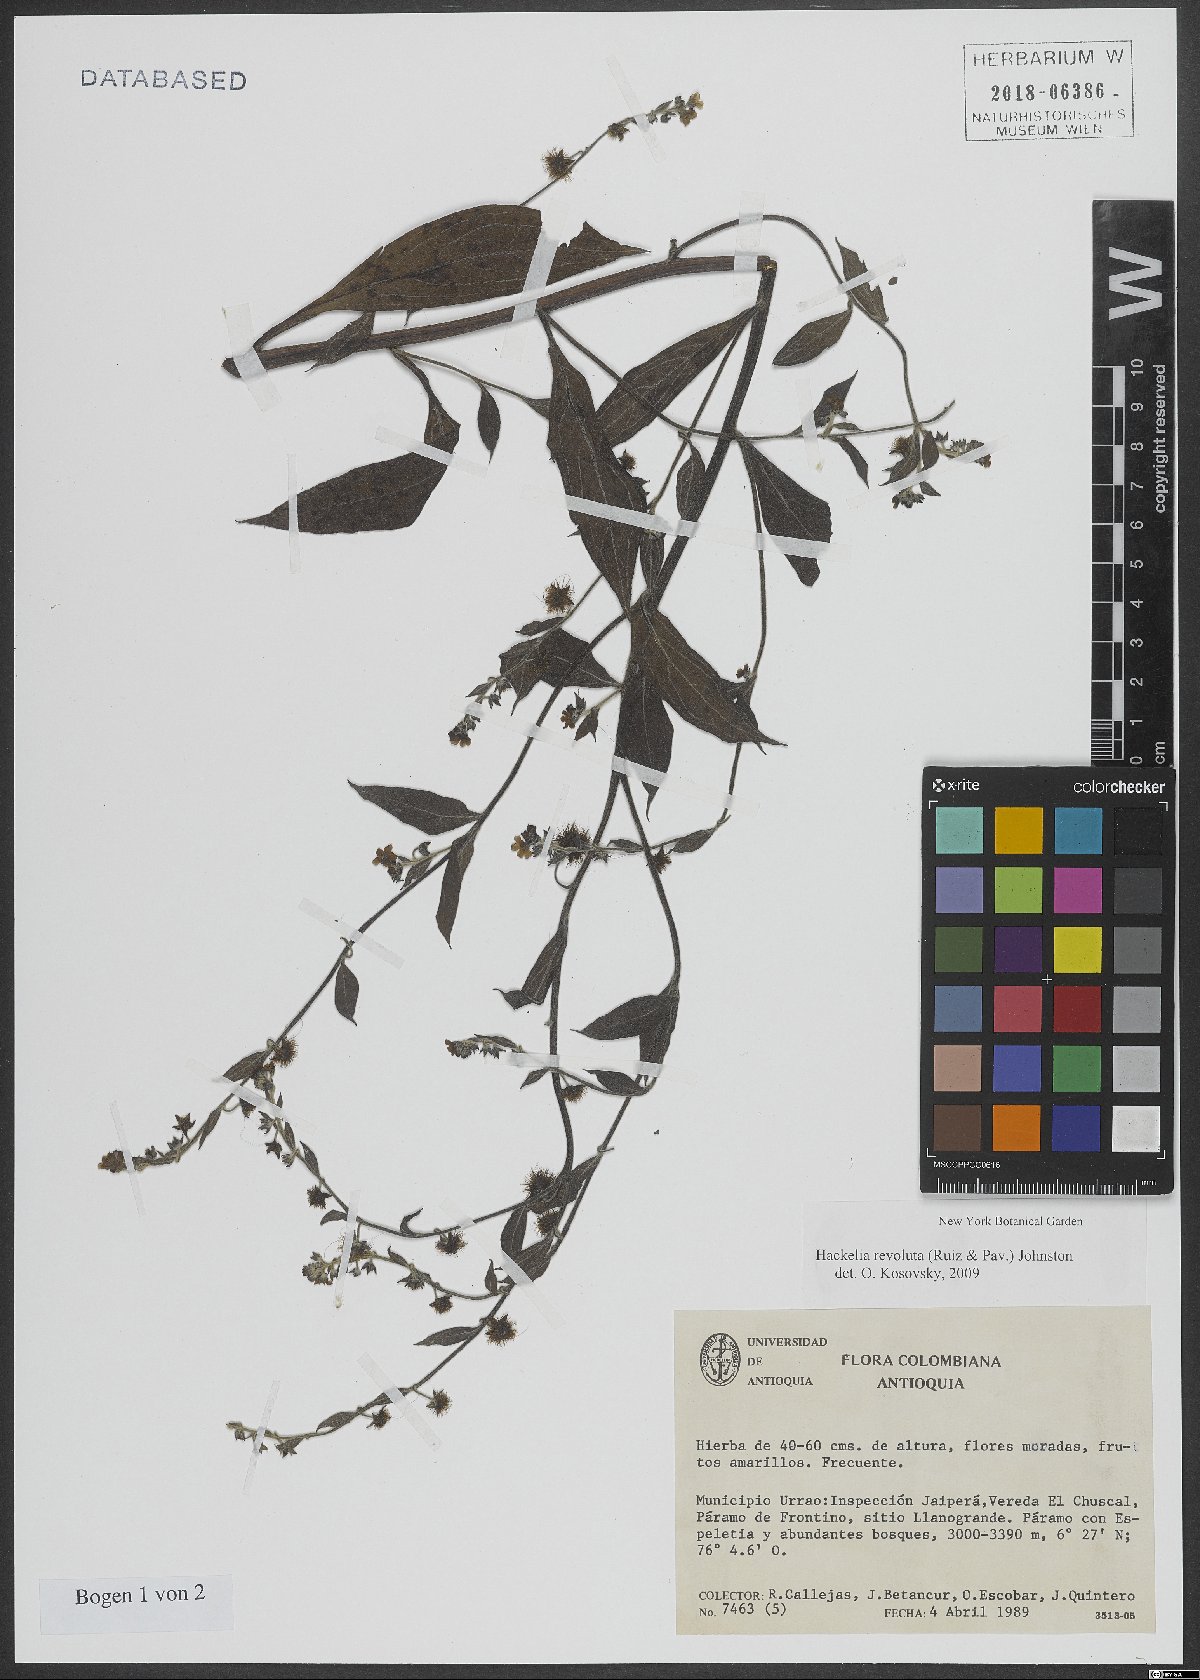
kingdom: Plantae
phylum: Tracheophyta
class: Magnoliopsida
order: Boraginales
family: Boraginaceae
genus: Hackelia
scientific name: Hackelia revoluta
